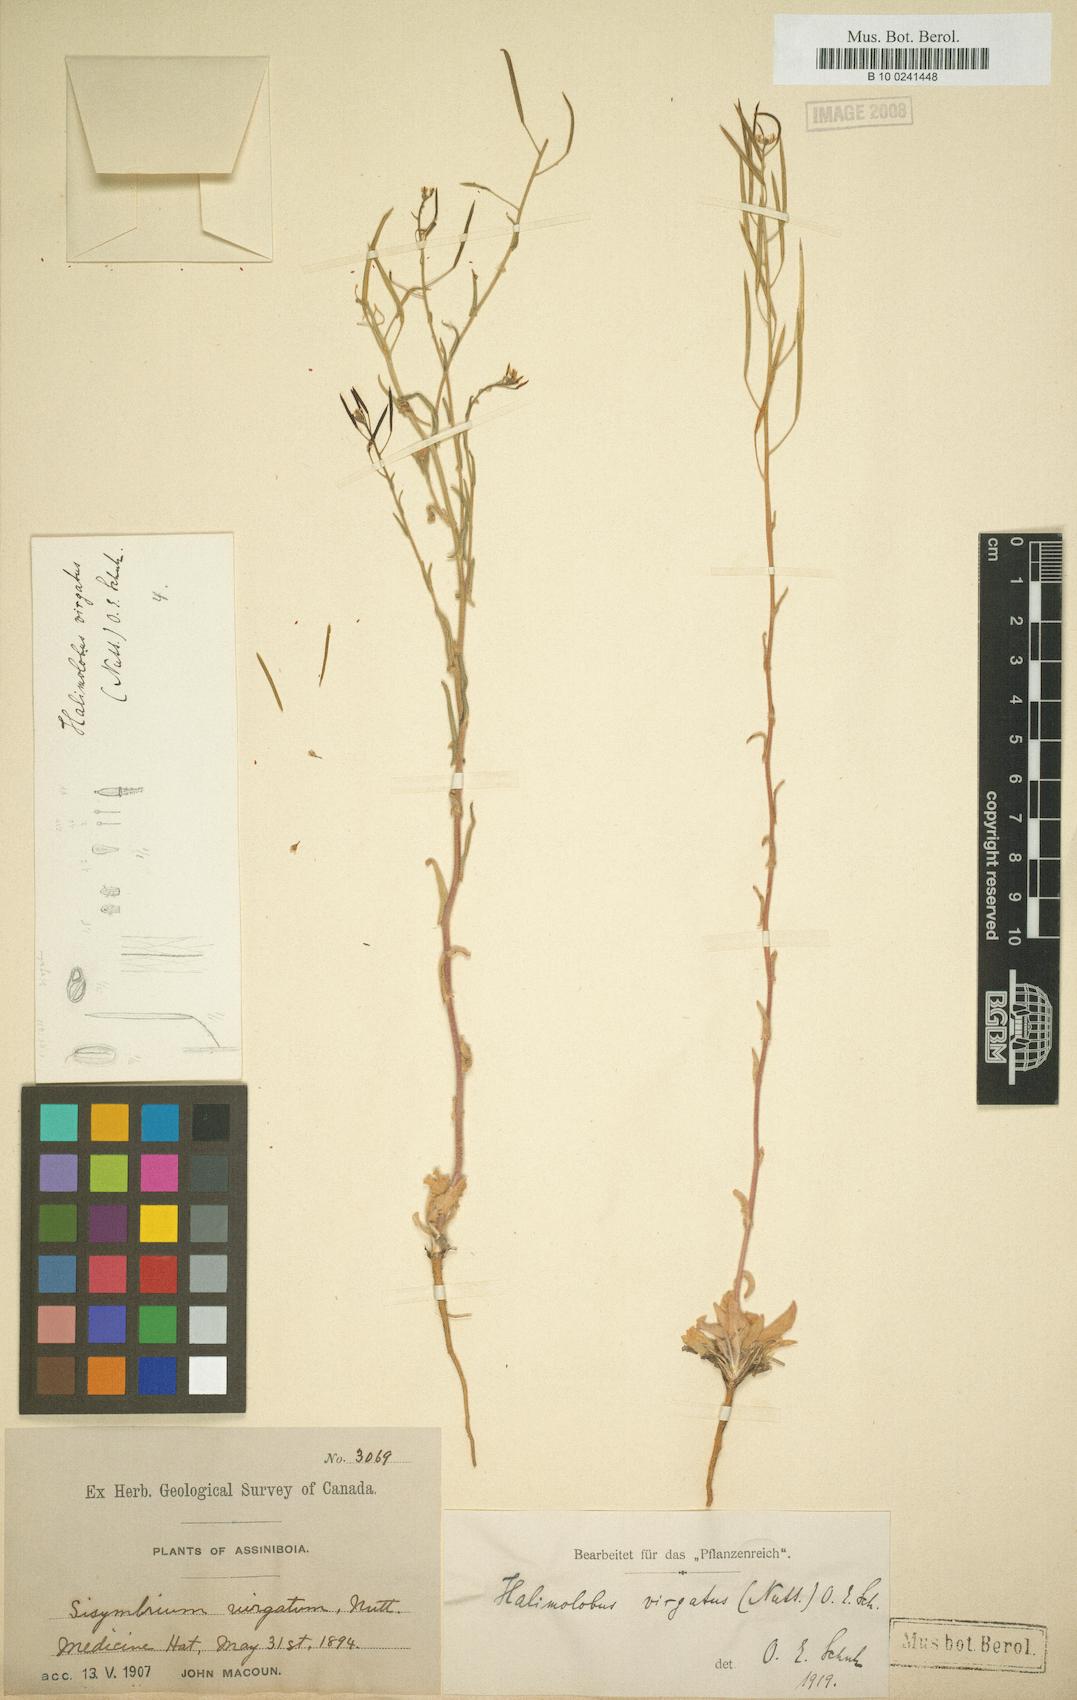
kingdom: Plantae
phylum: Tracheophyta
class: Magnoliopsida
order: Brassicales
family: Brassicaceae
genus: Halimolobus
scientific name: Halimolobus
